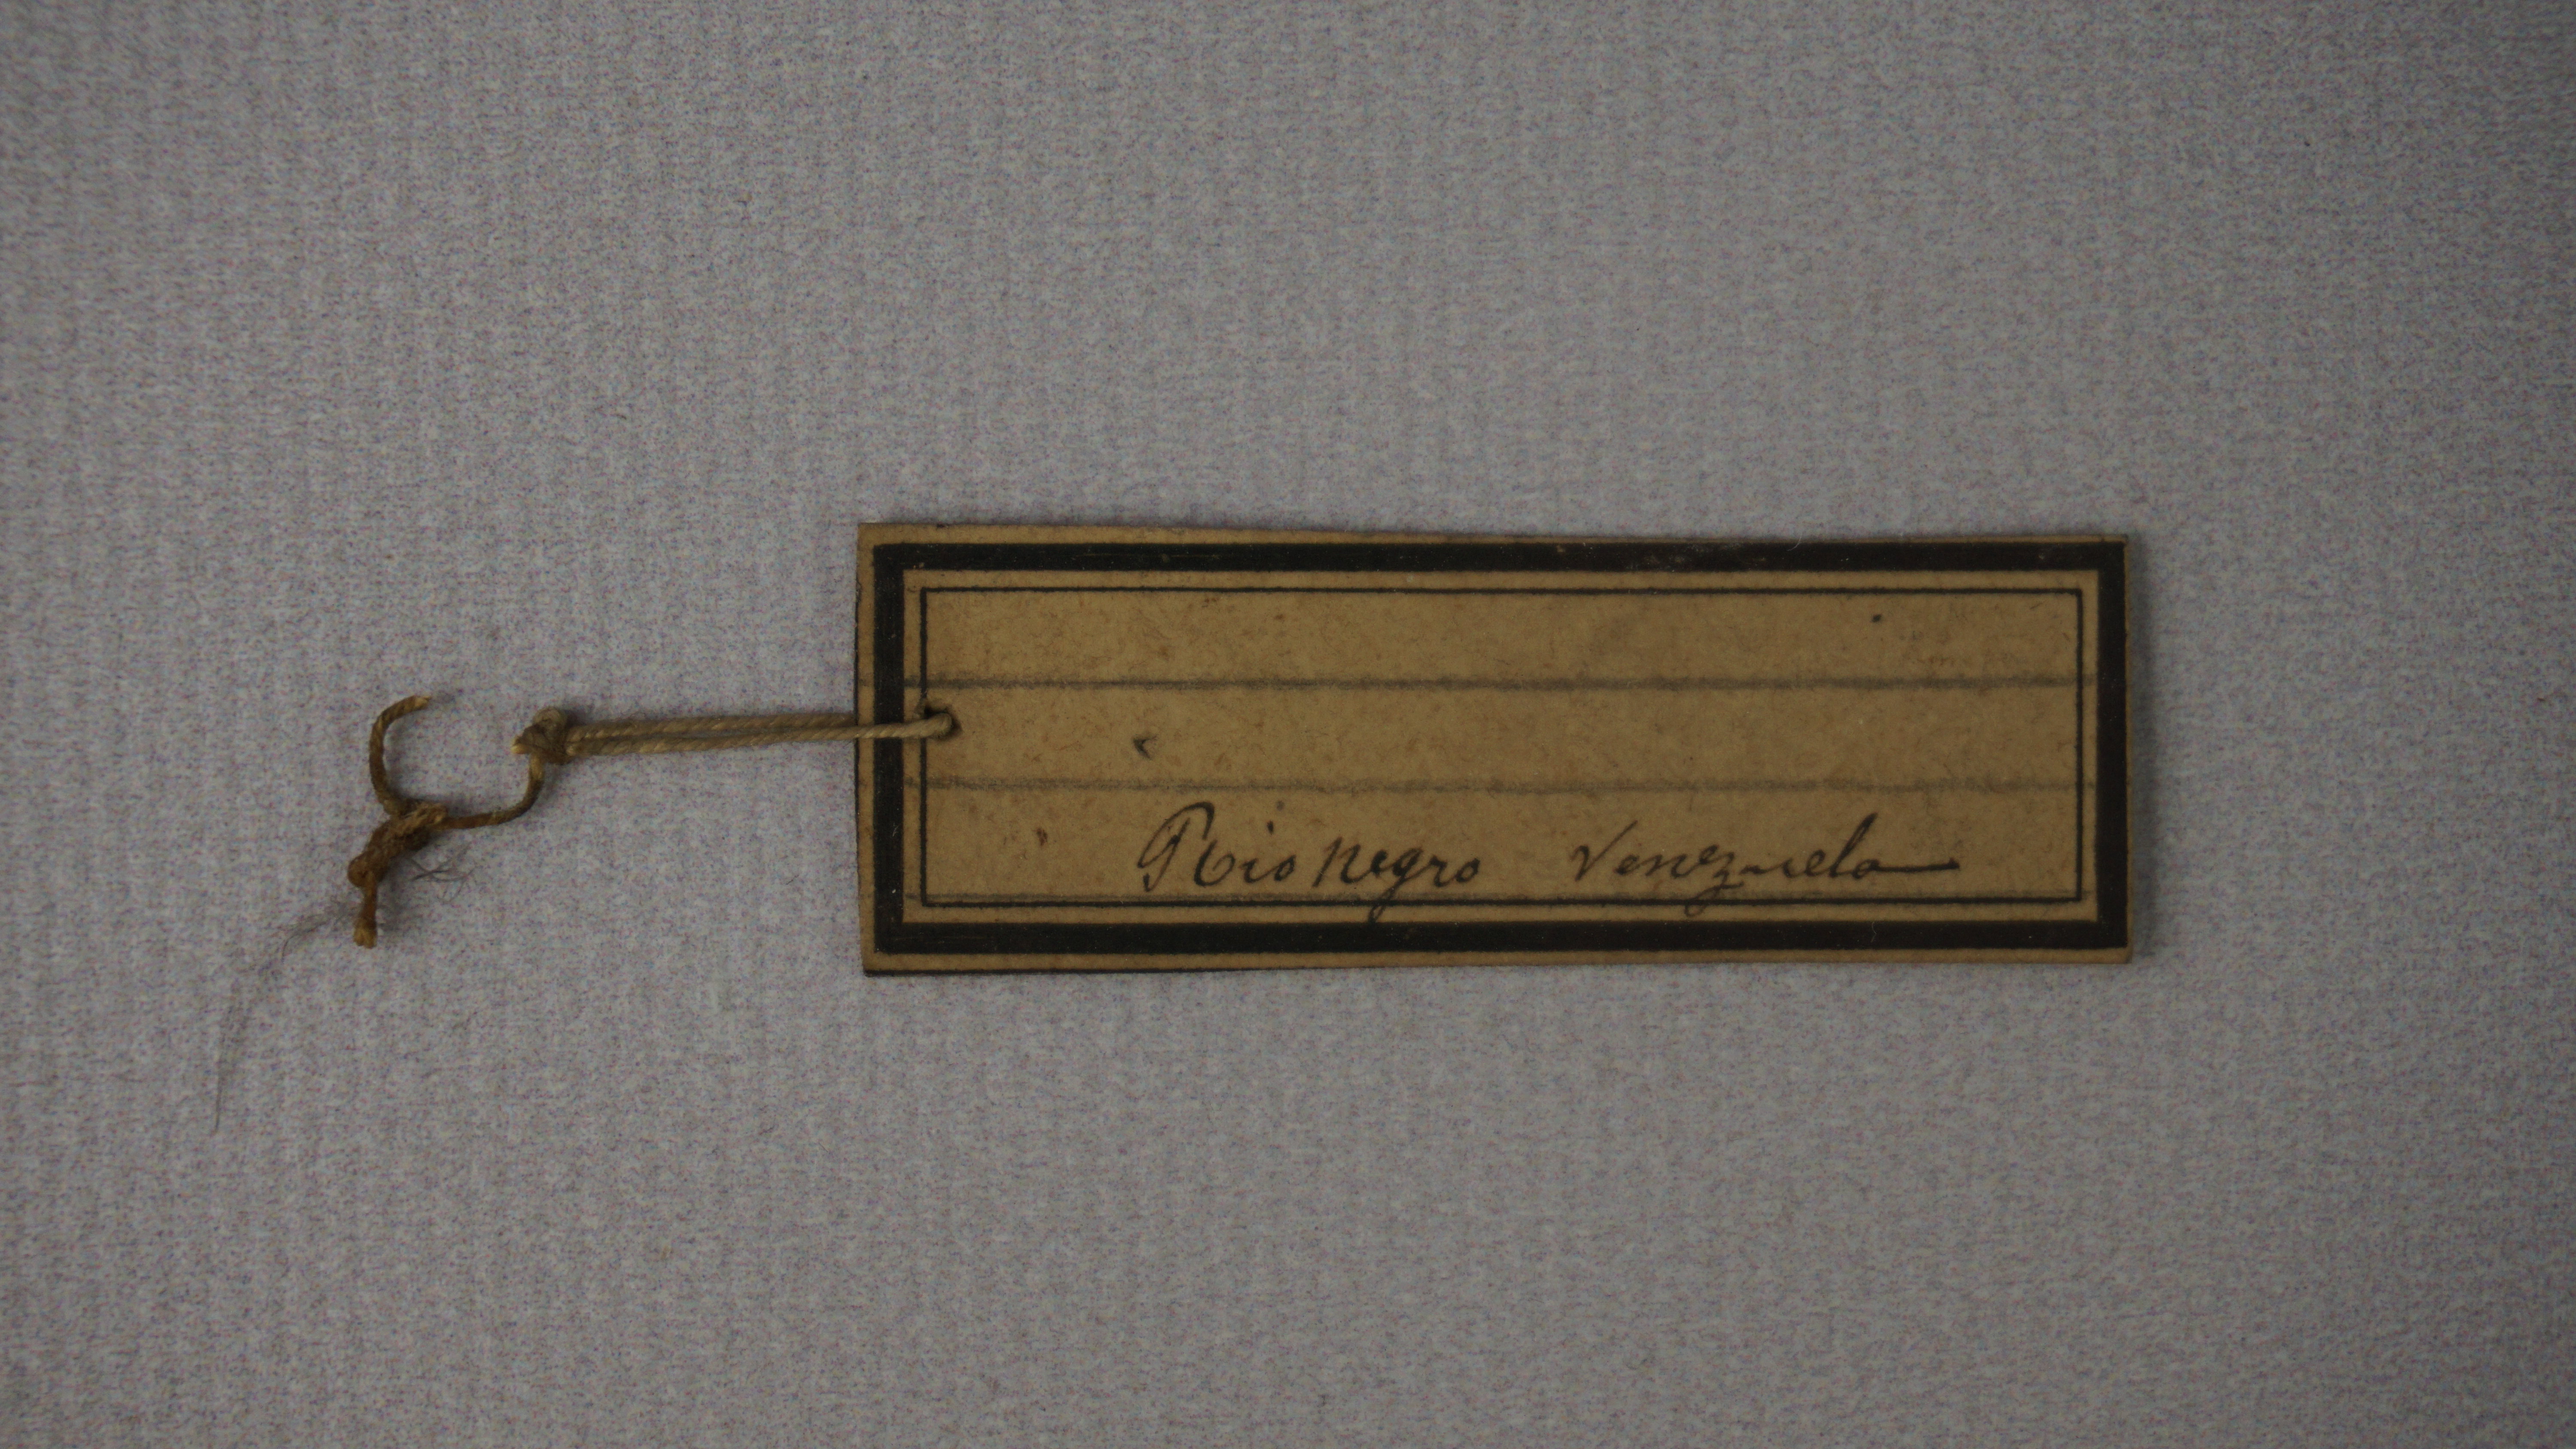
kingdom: Animalia
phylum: Chordata
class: Aves
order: Piciformes
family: Bucconidae
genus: Monasa
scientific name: Monasa nigrifrons
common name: Black-fronted nunbird
